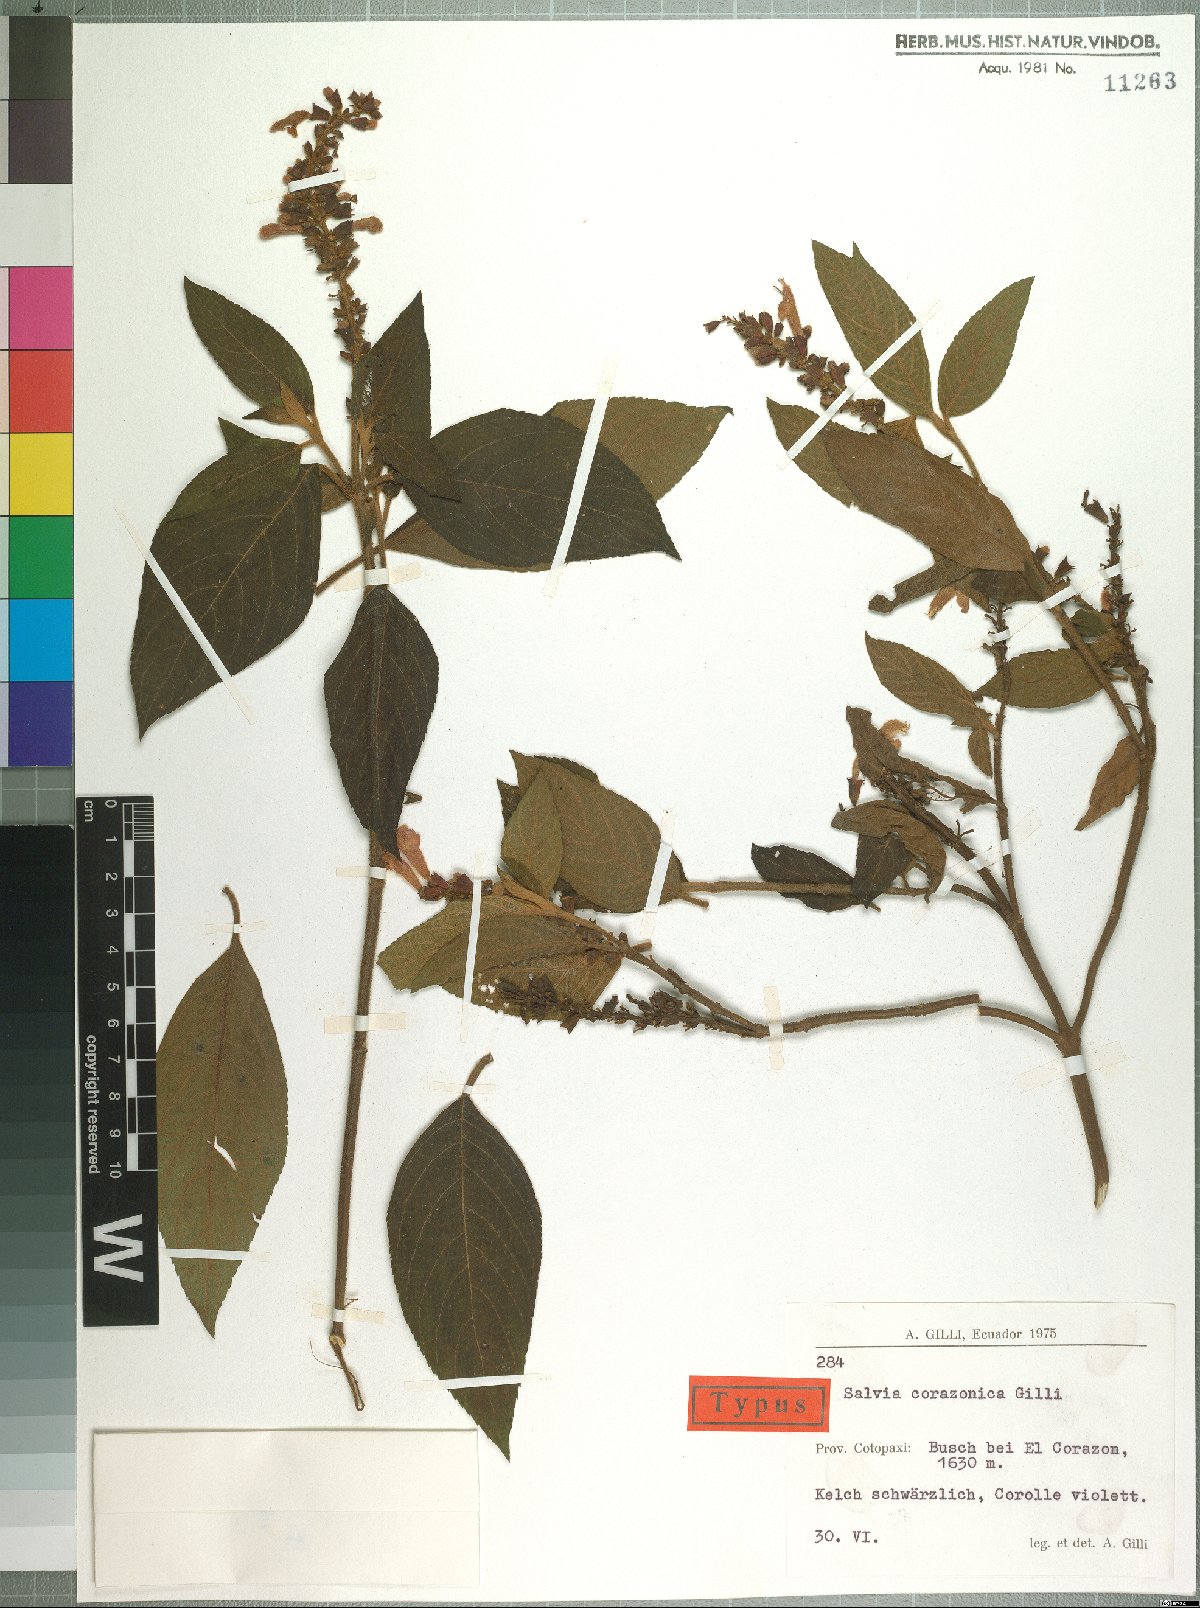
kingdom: Plantae
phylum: Tracheophyta
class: Magnoliopsida
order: Lamiales
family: Lamiaceae
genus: Salvia
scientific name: Salvia corazonica
